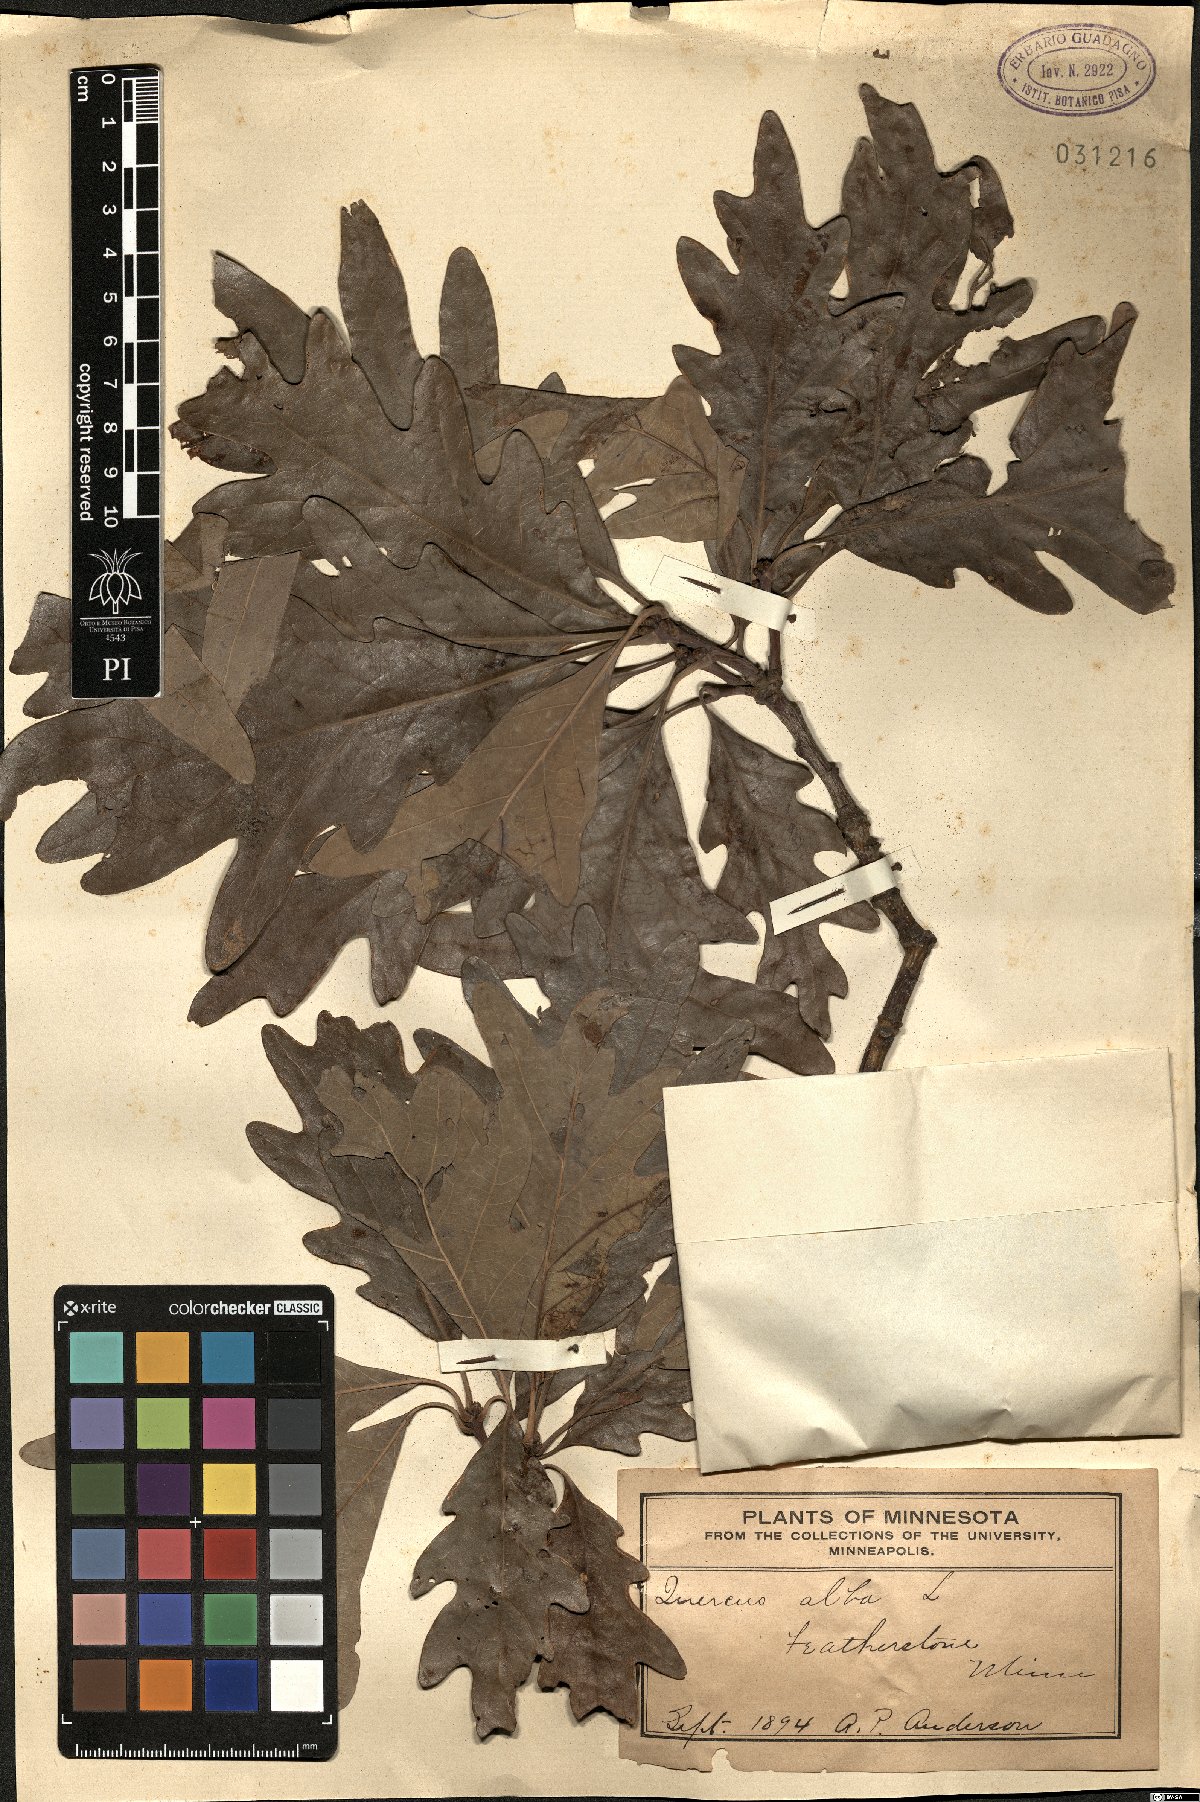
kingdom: Plantae
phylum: Tracheophyta
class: Magnoliopsida
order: Fagales
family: Fagaceae
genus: Quercus
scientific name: Quercus alba
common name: White oak
